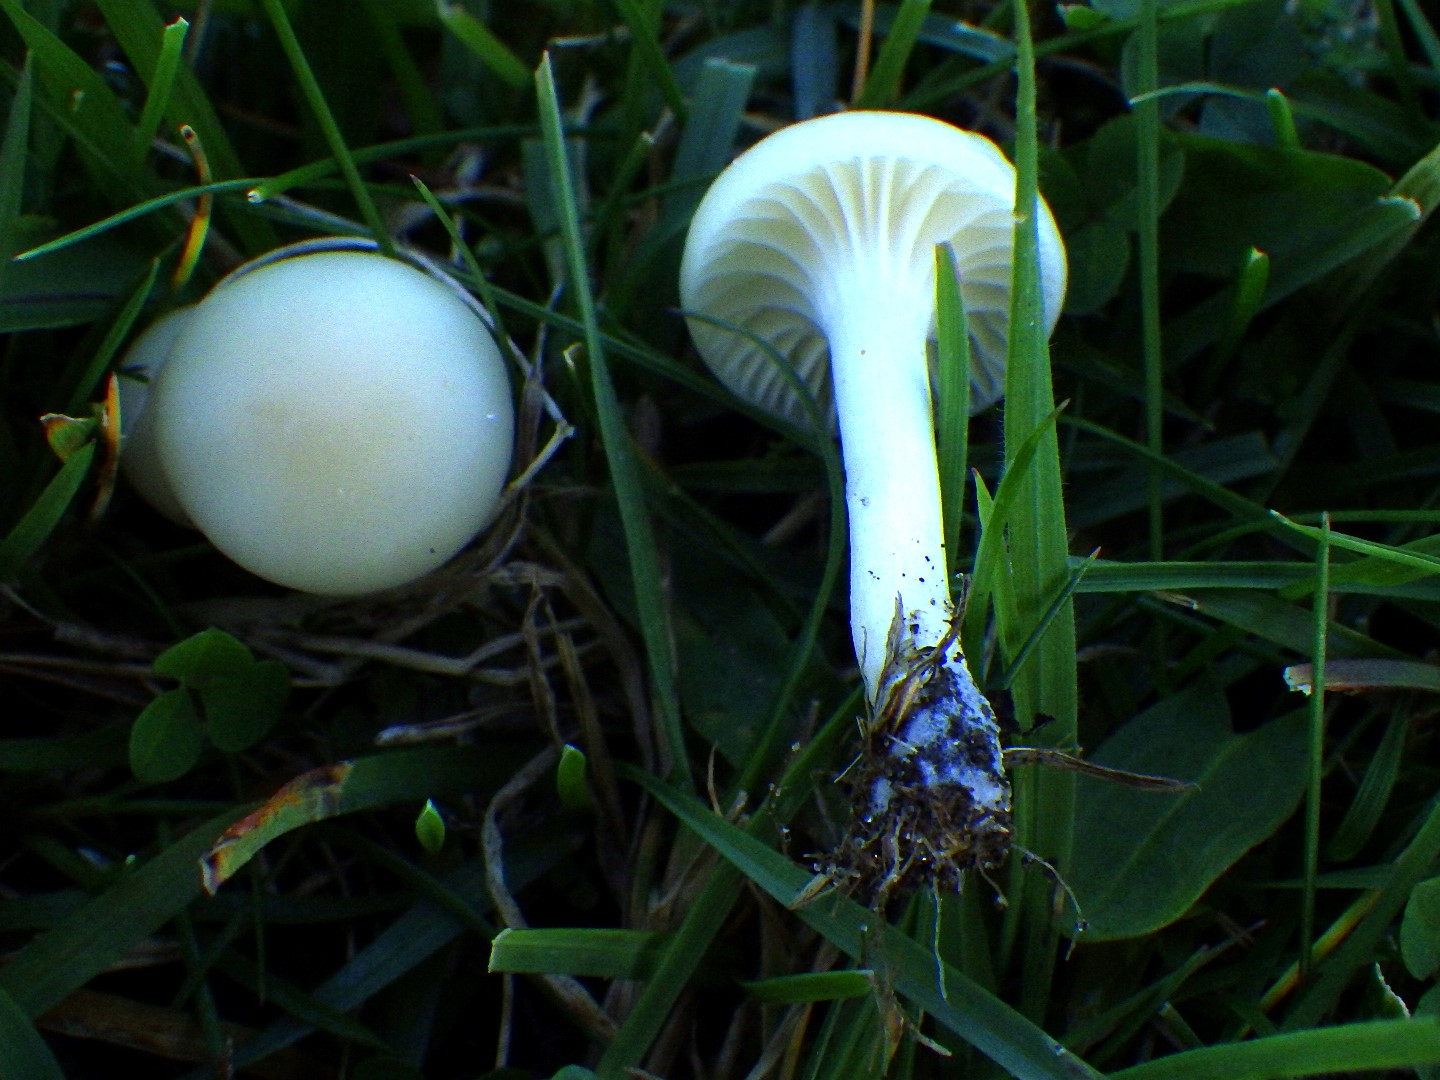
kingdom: Fungi
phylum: Basidiomycota
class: Agaricomycetes
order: Agaricales
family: Hygrophoraceae
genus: Cuphophyllus
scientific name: Cuphophyllus
